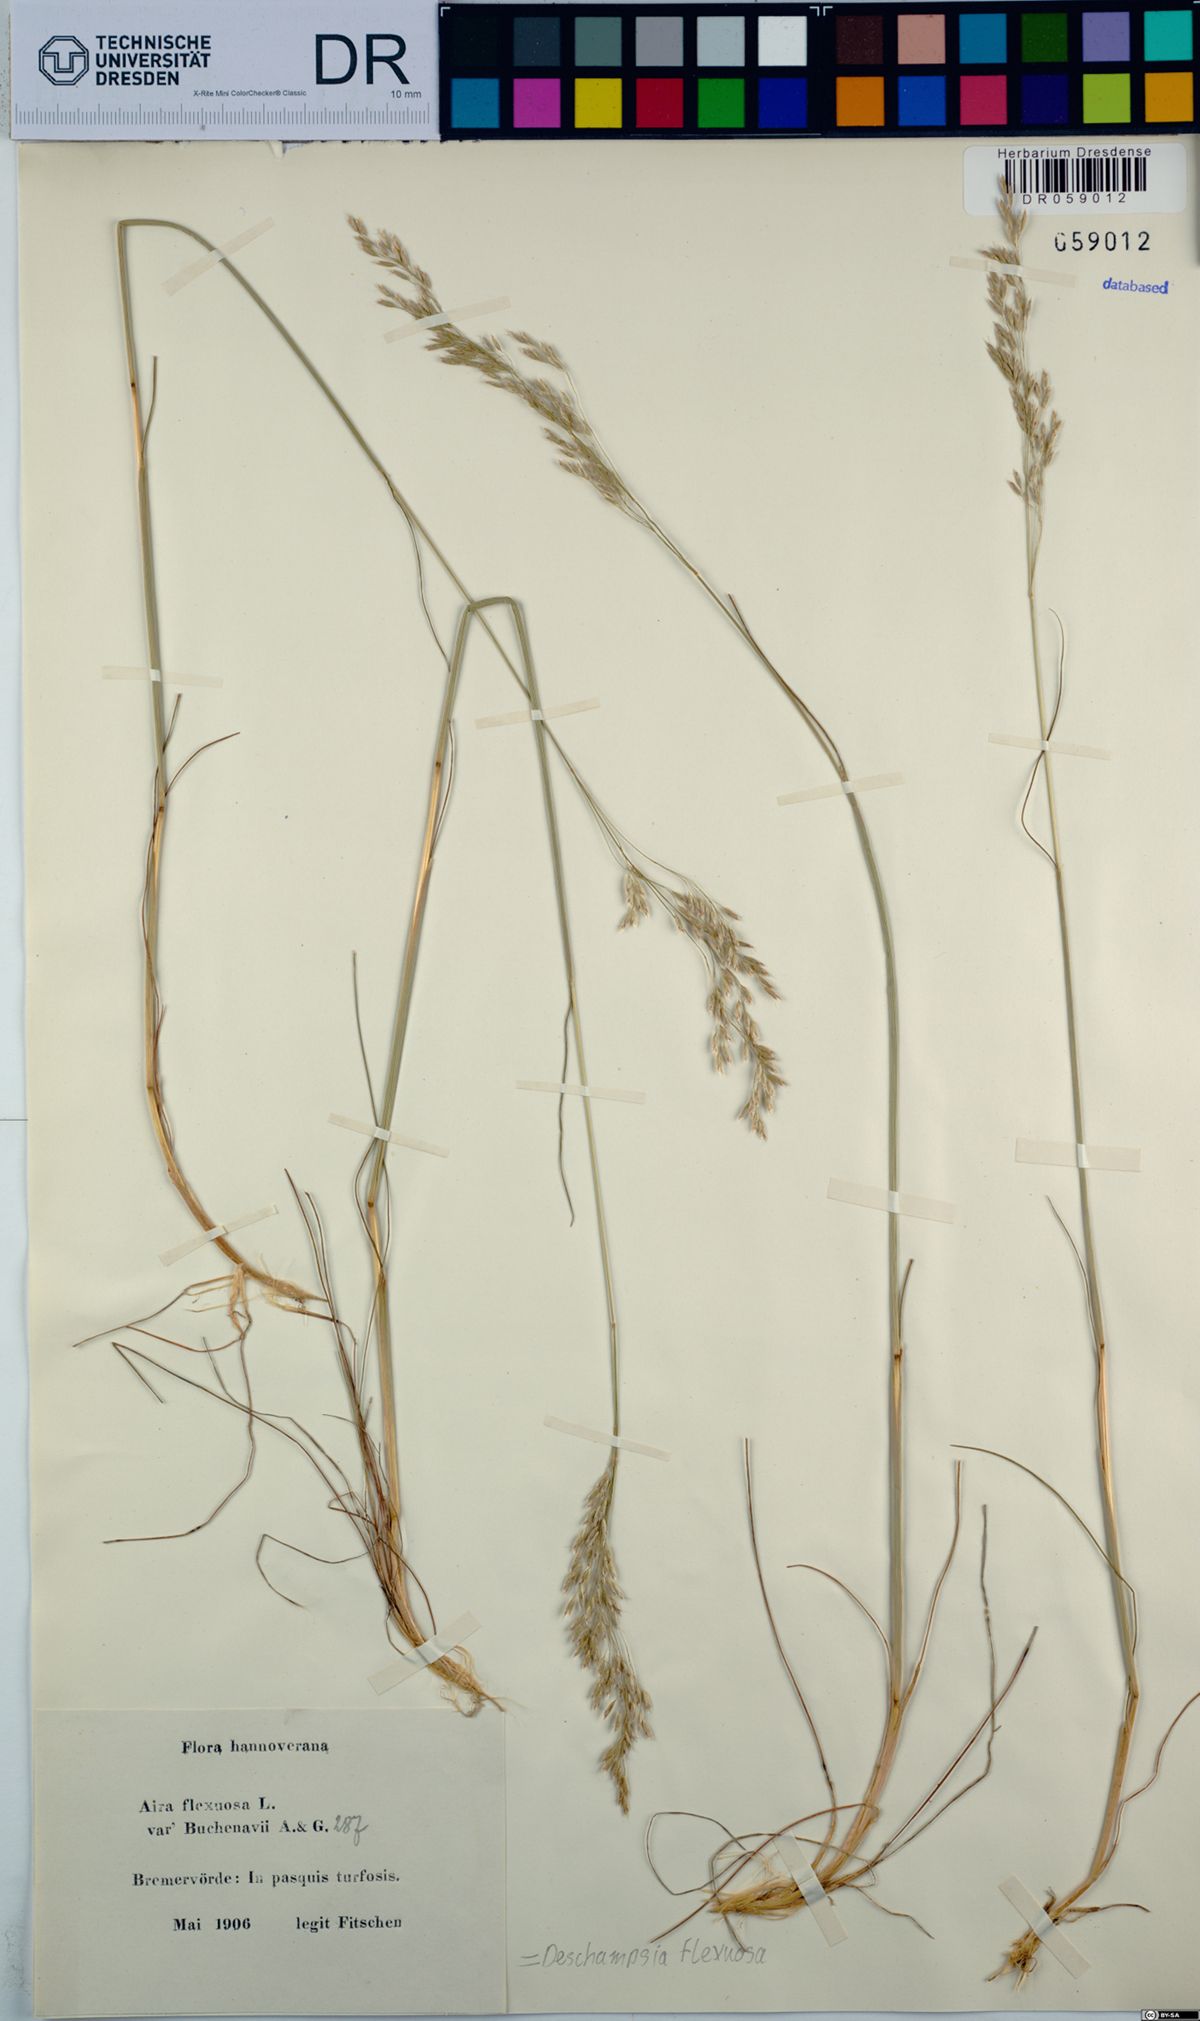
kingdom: Plantae
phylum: Tracheophyta
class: Liliopsida
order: Poales
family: Poaceae
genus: Avenella
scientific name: Avenella flexuosa
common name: Wavy hairgrass
